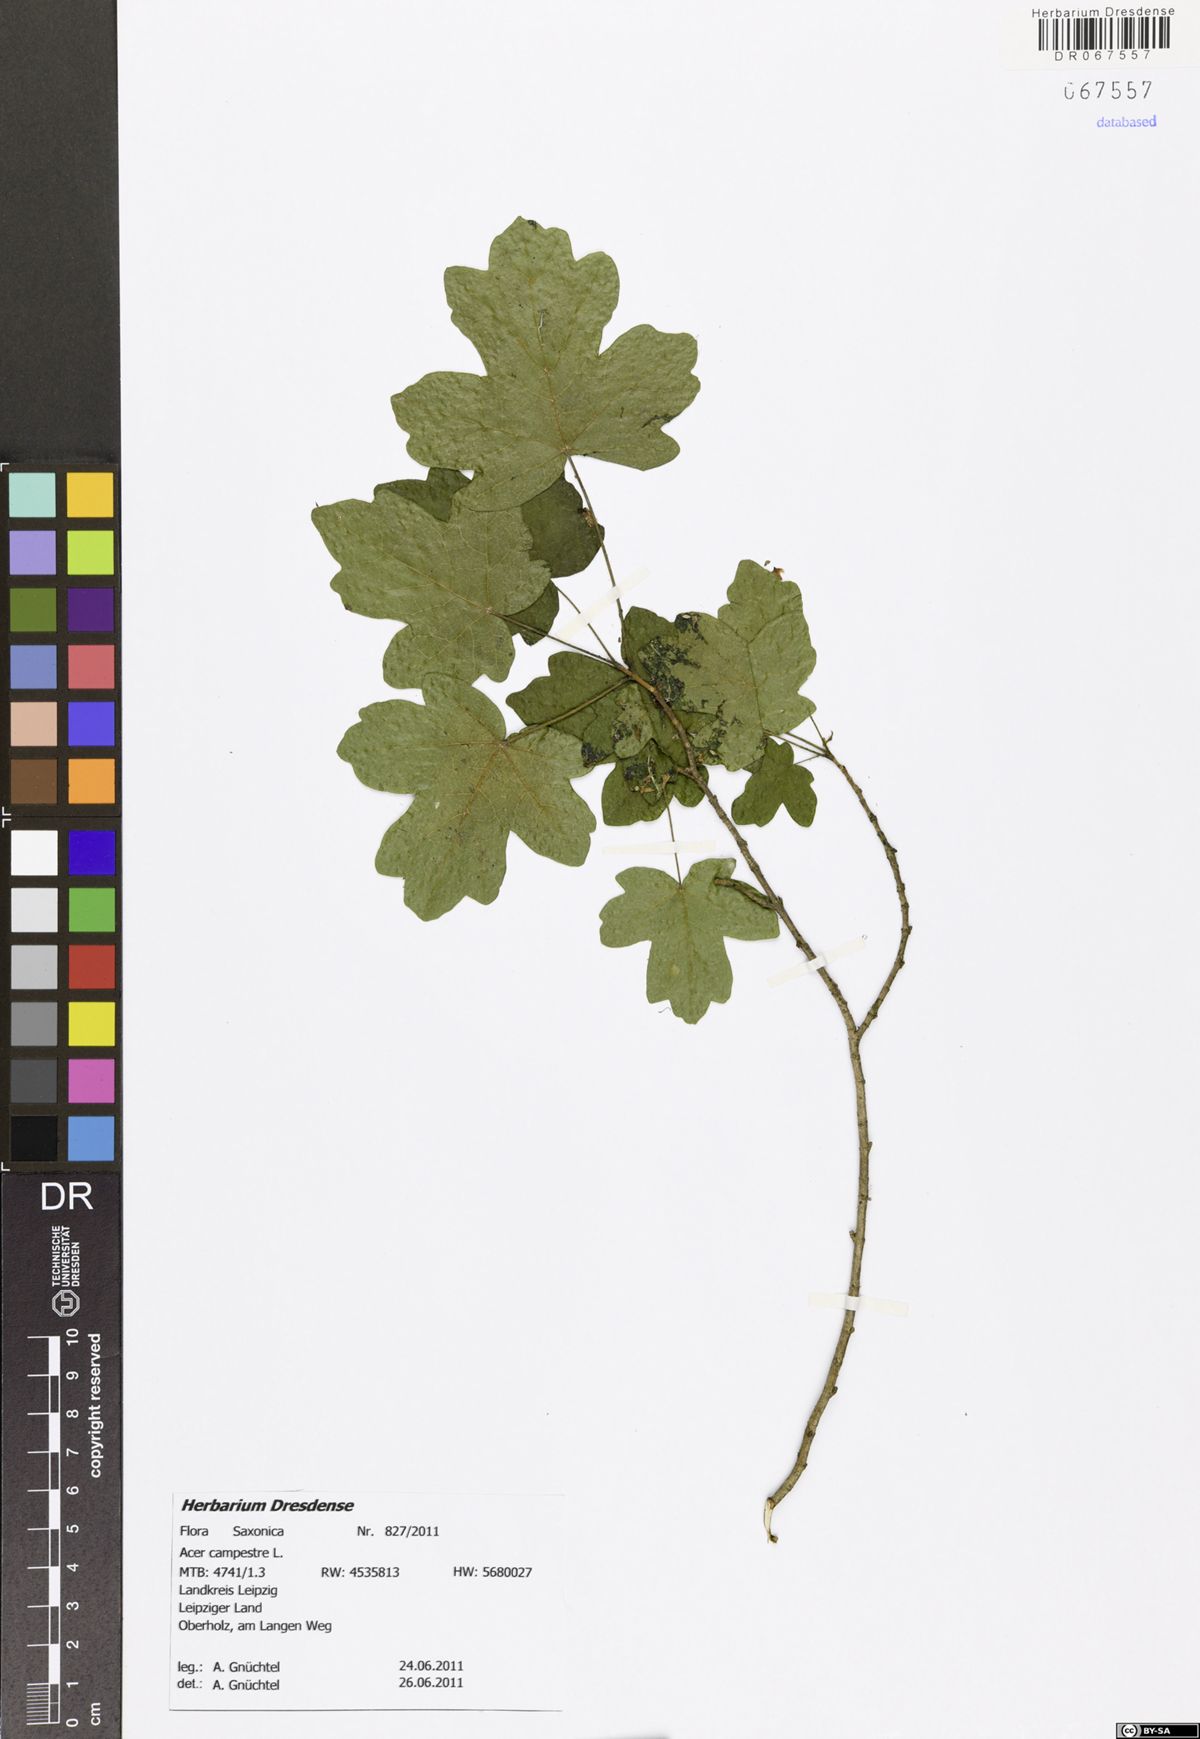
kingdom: Plantae
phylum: Tracheophyta
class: Magnoliopsida
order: Sapindales
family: Sapindaceae
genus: Acer
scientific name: Acer campestre
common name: Field maple
